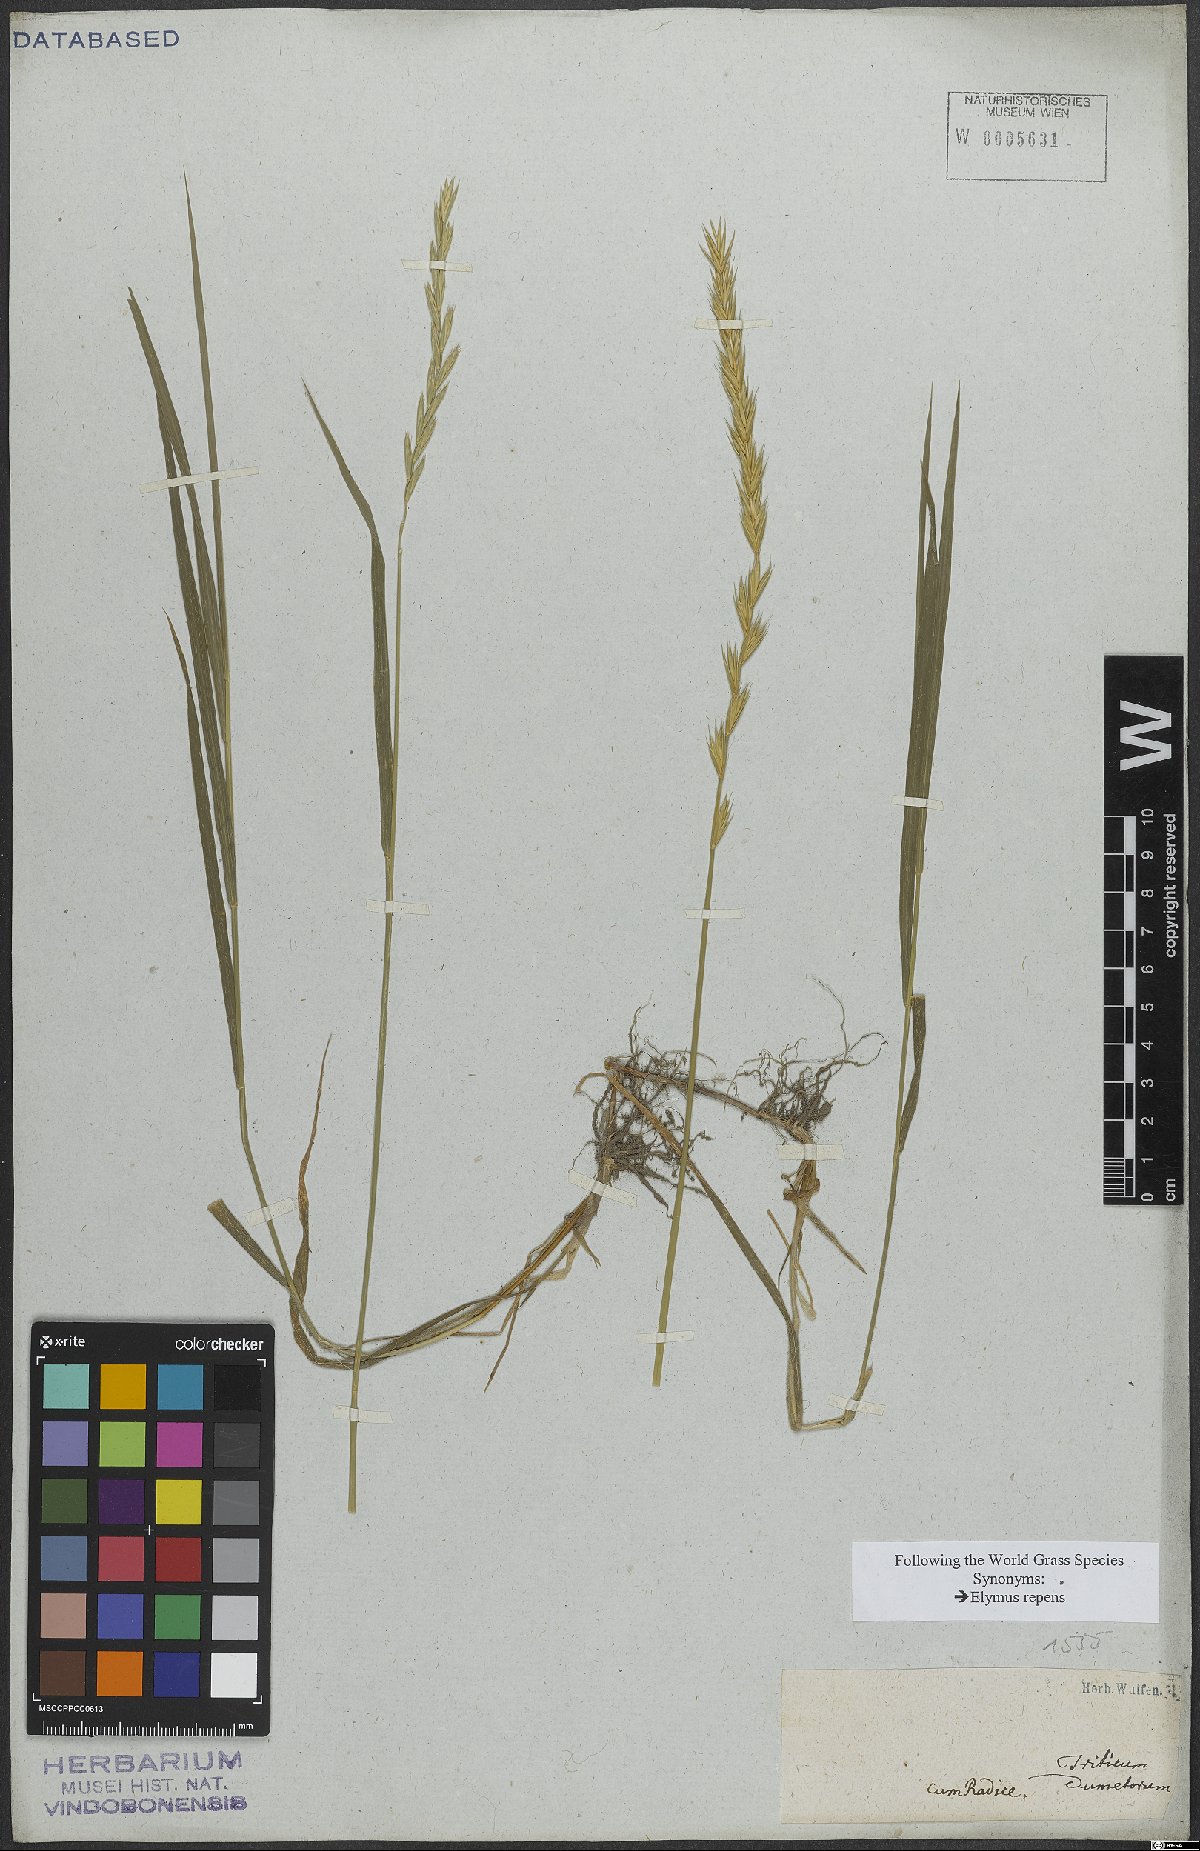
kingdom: Plantae
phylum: Tracheophyta
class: Liliopsida
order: Poales
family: Poaceae
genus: Elymus
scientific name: Elymus repens
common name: Quackgrass
